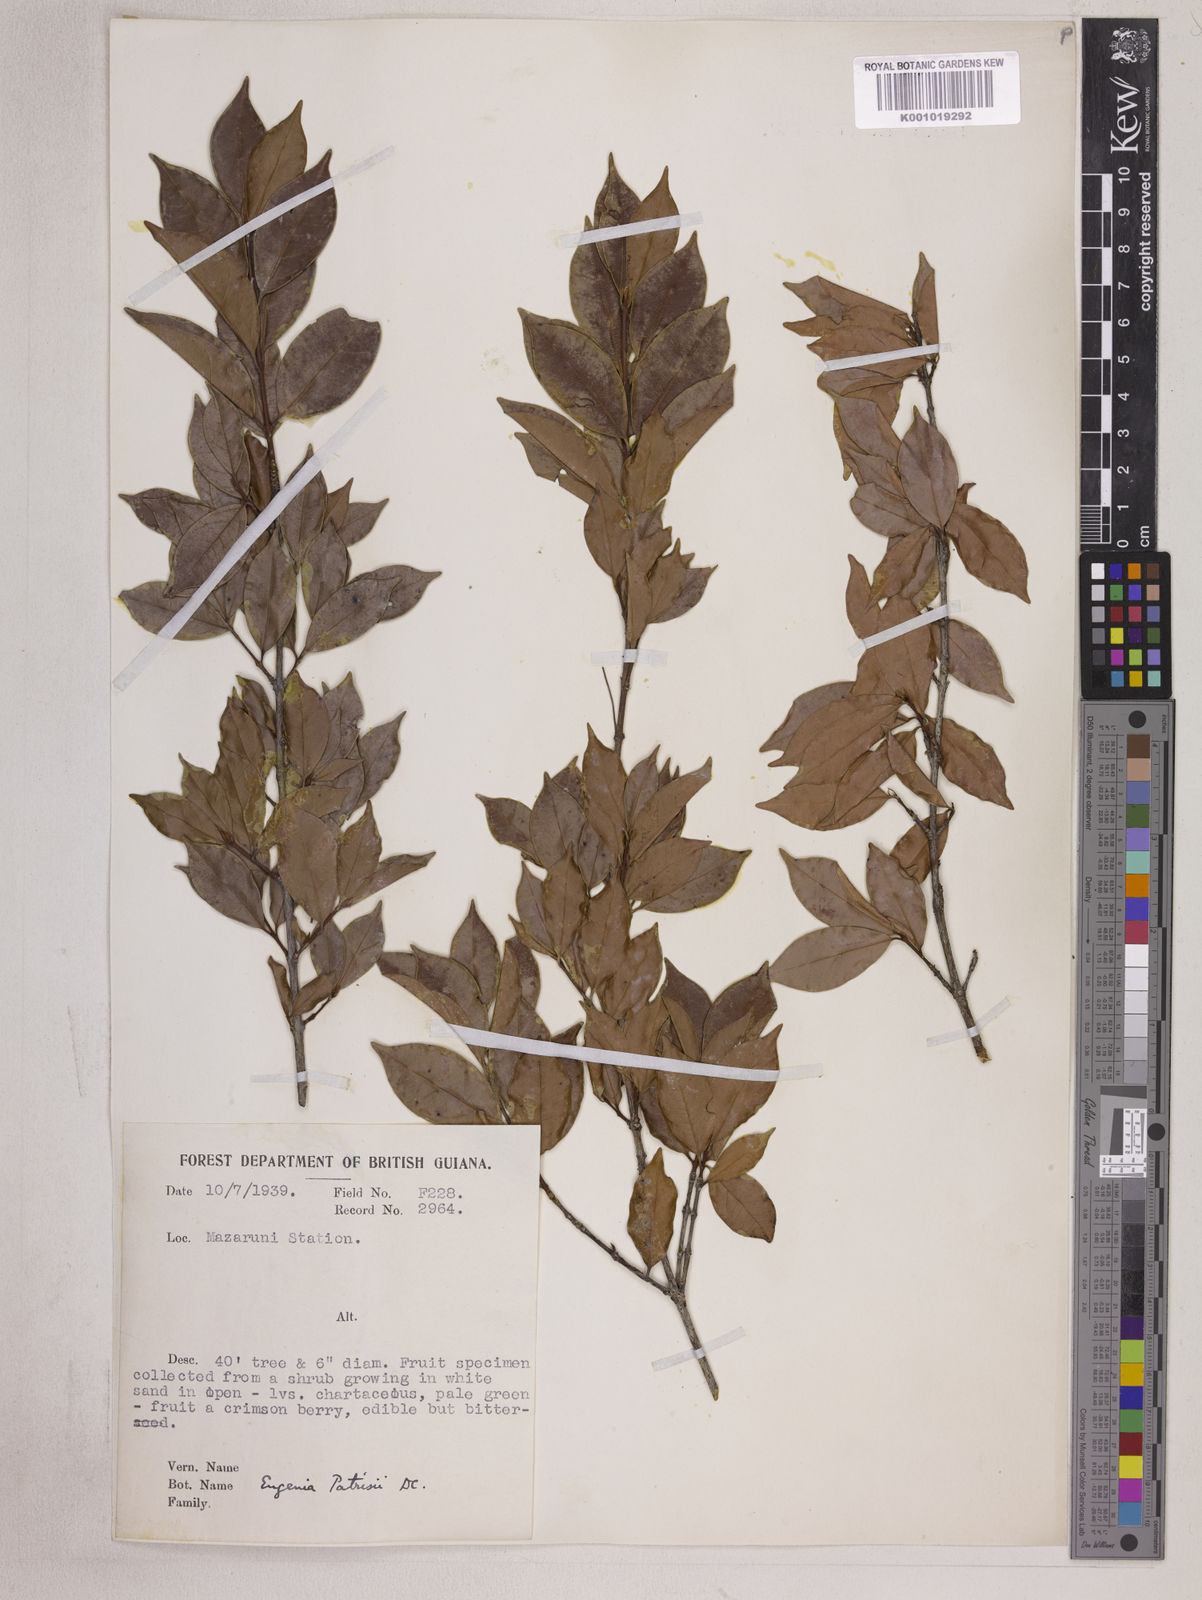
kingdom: Plantae
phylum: Tracheophyta
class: Magnoliopsida
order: Myrtales
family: Myrtaceae
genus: Eugenia
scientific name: Eugenia patrisii
